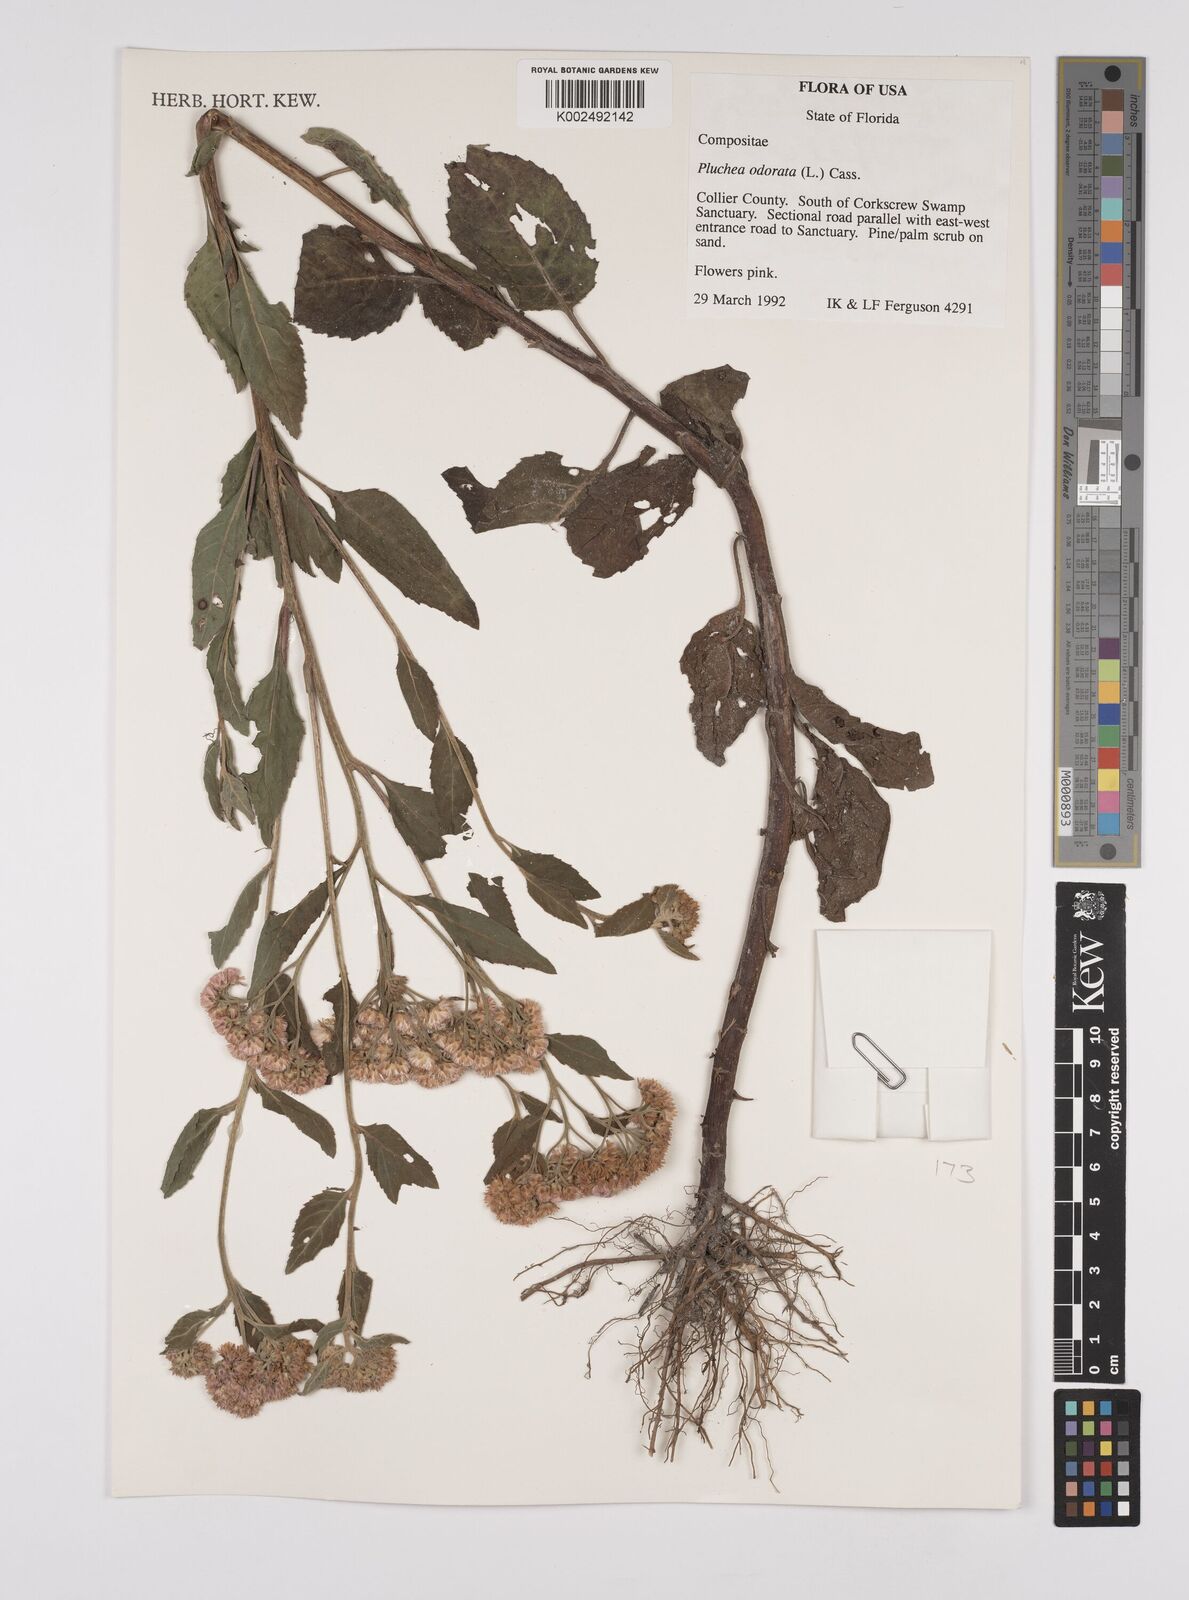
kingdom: Plantae
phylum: Tracheophyta
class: Magnoliopsida
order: Asterales
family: Asteraceae
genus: Pluchea
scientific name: Pluchea odorata
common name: Saltmarsh fleabane
